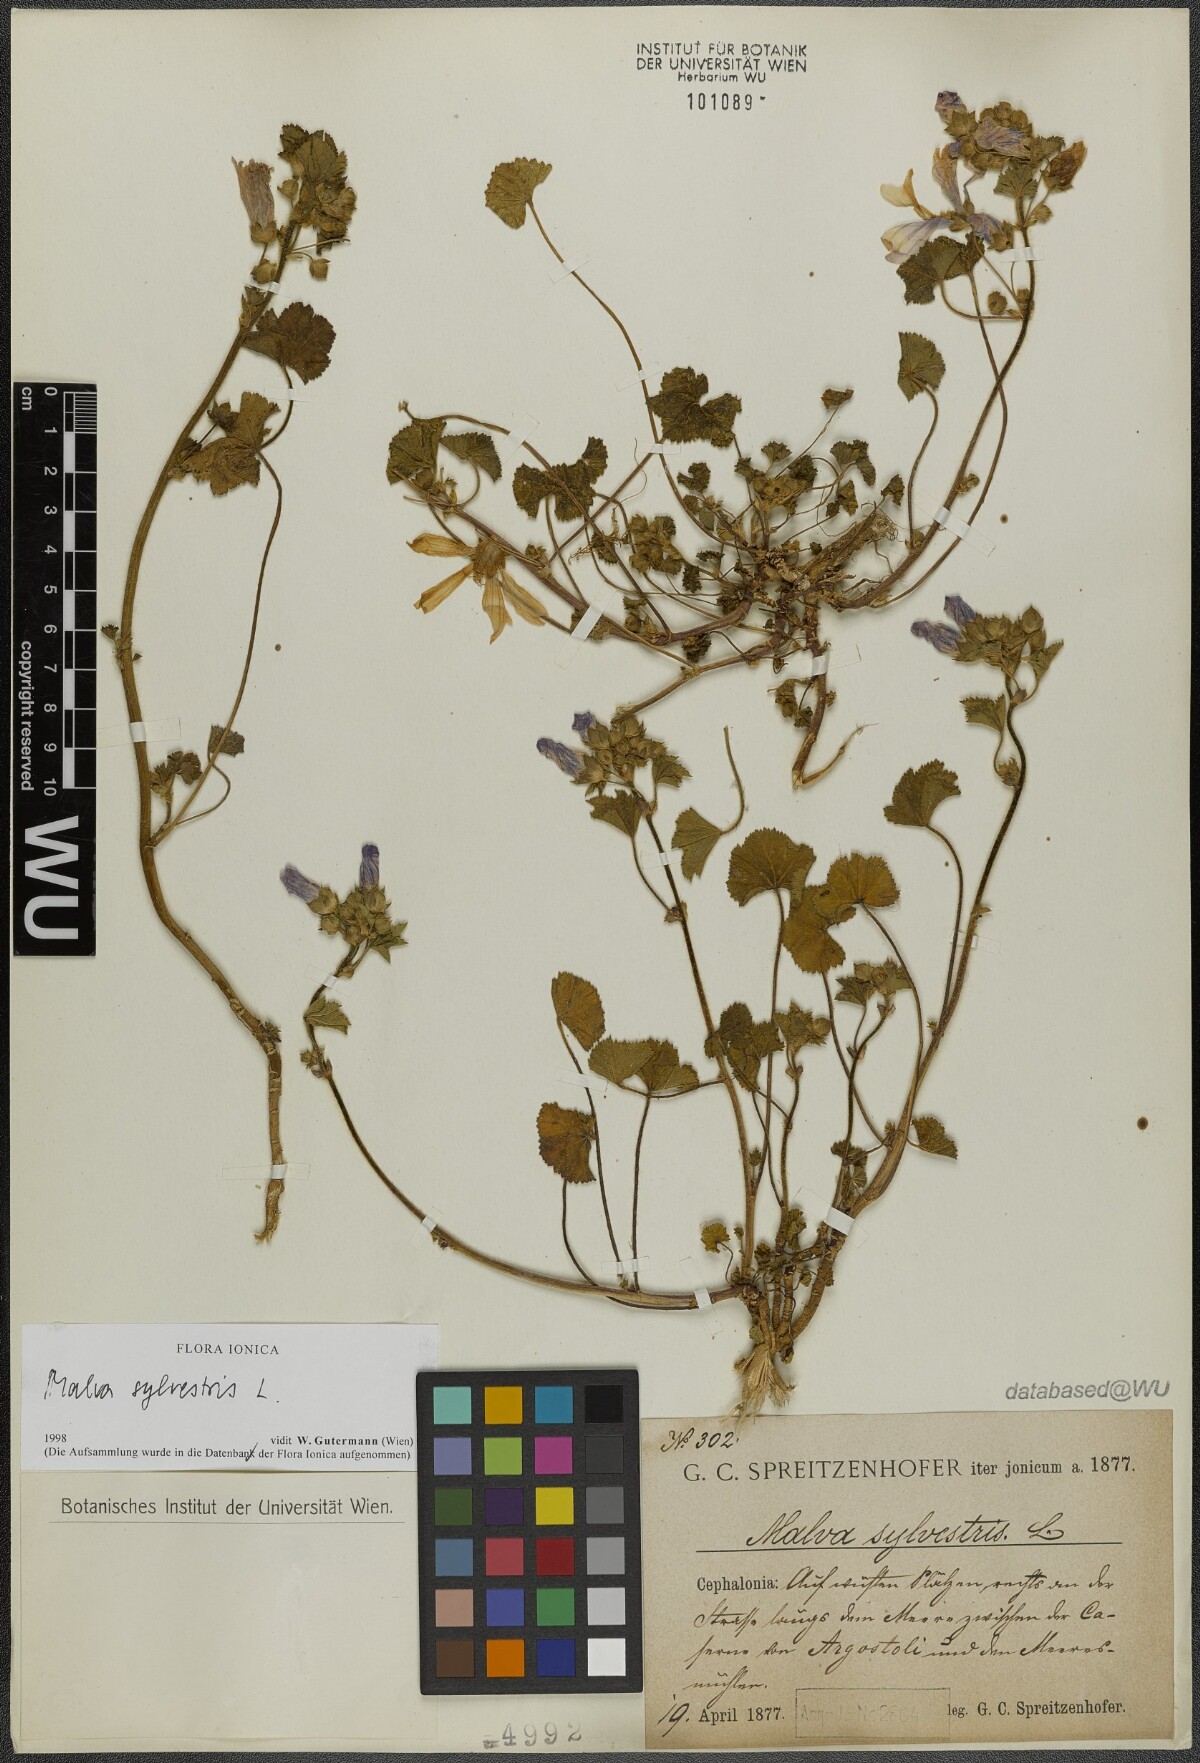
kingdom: Plantae
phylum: Tracheophyta
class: Magnoliopsida
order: Malvales
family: Malvaceae
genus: Malva
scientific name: Malva sylvestris
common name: Common mallow
